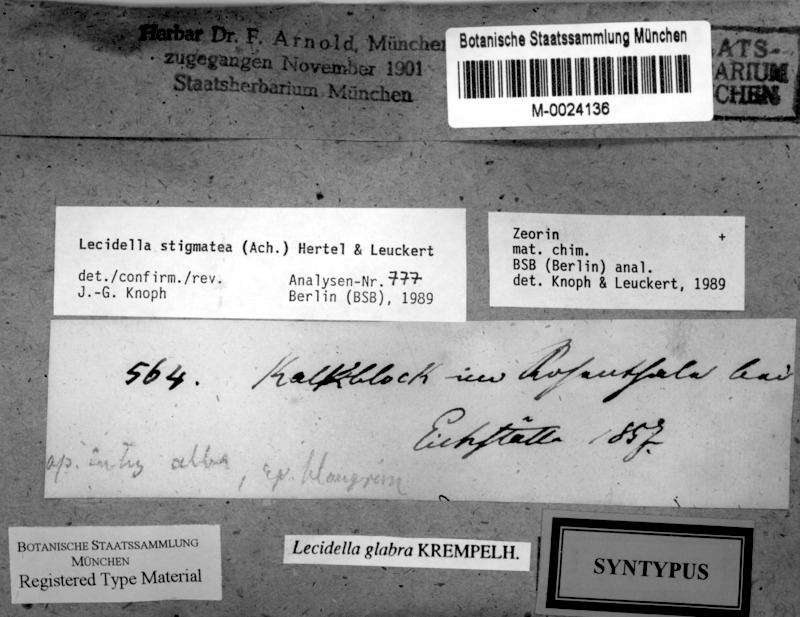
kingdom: Fungi
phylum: Ascomycota
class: Lecanoromycetes
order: Lecanorales
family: Lecanoraceae
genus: Lecidella
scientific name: Lecidella stigmatea
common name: Limestone disc lichen
